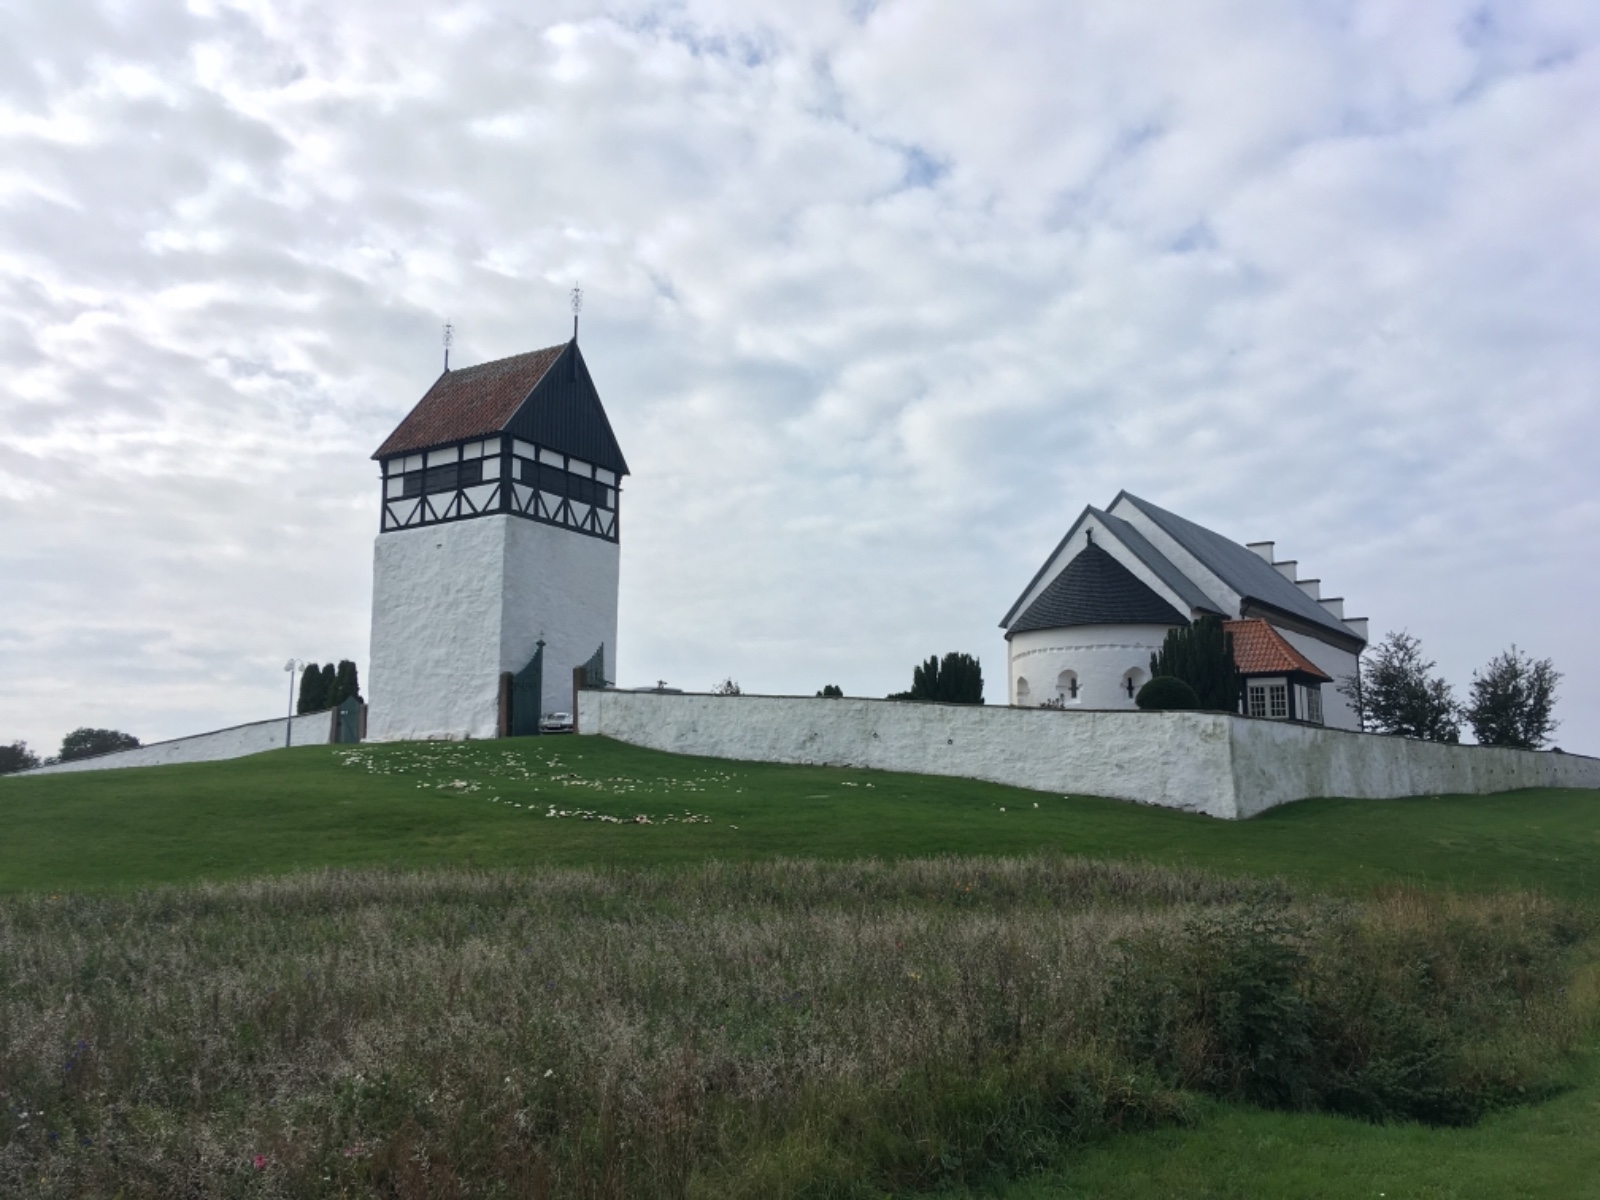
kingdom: Fungi
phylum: Basidiomycota
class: Agaricomycetes
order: Agaricales
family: Agaricaceae
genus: Agaricus
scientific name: Agaricus xanthodermus
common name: karbol-champignon
